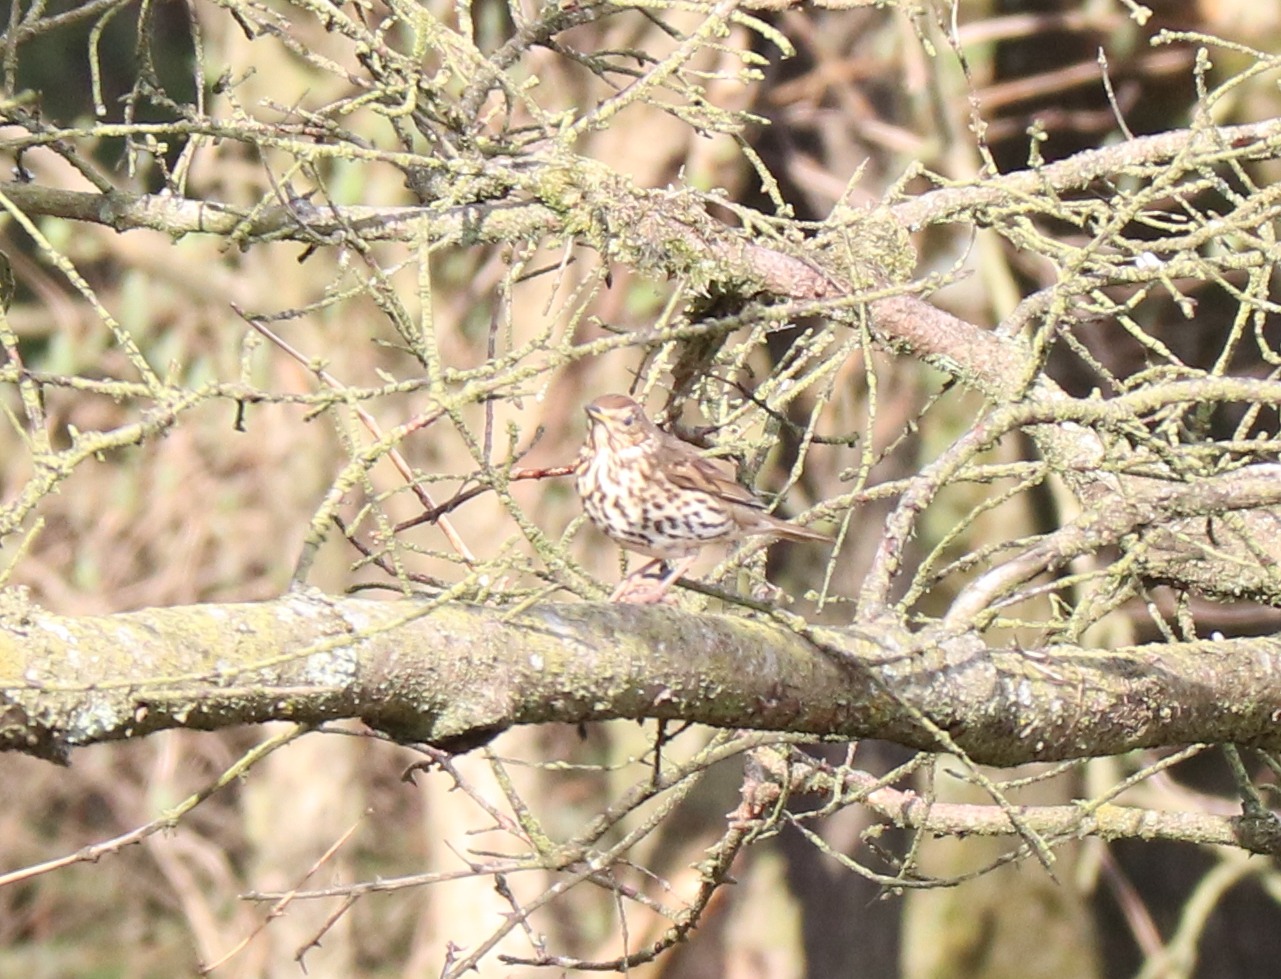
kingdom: Animalia
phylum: Chordata
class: Aves
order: Passeriformes
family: Turdidae
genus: Turdus
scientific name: Turdus philomelos
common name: Sangdrossel
